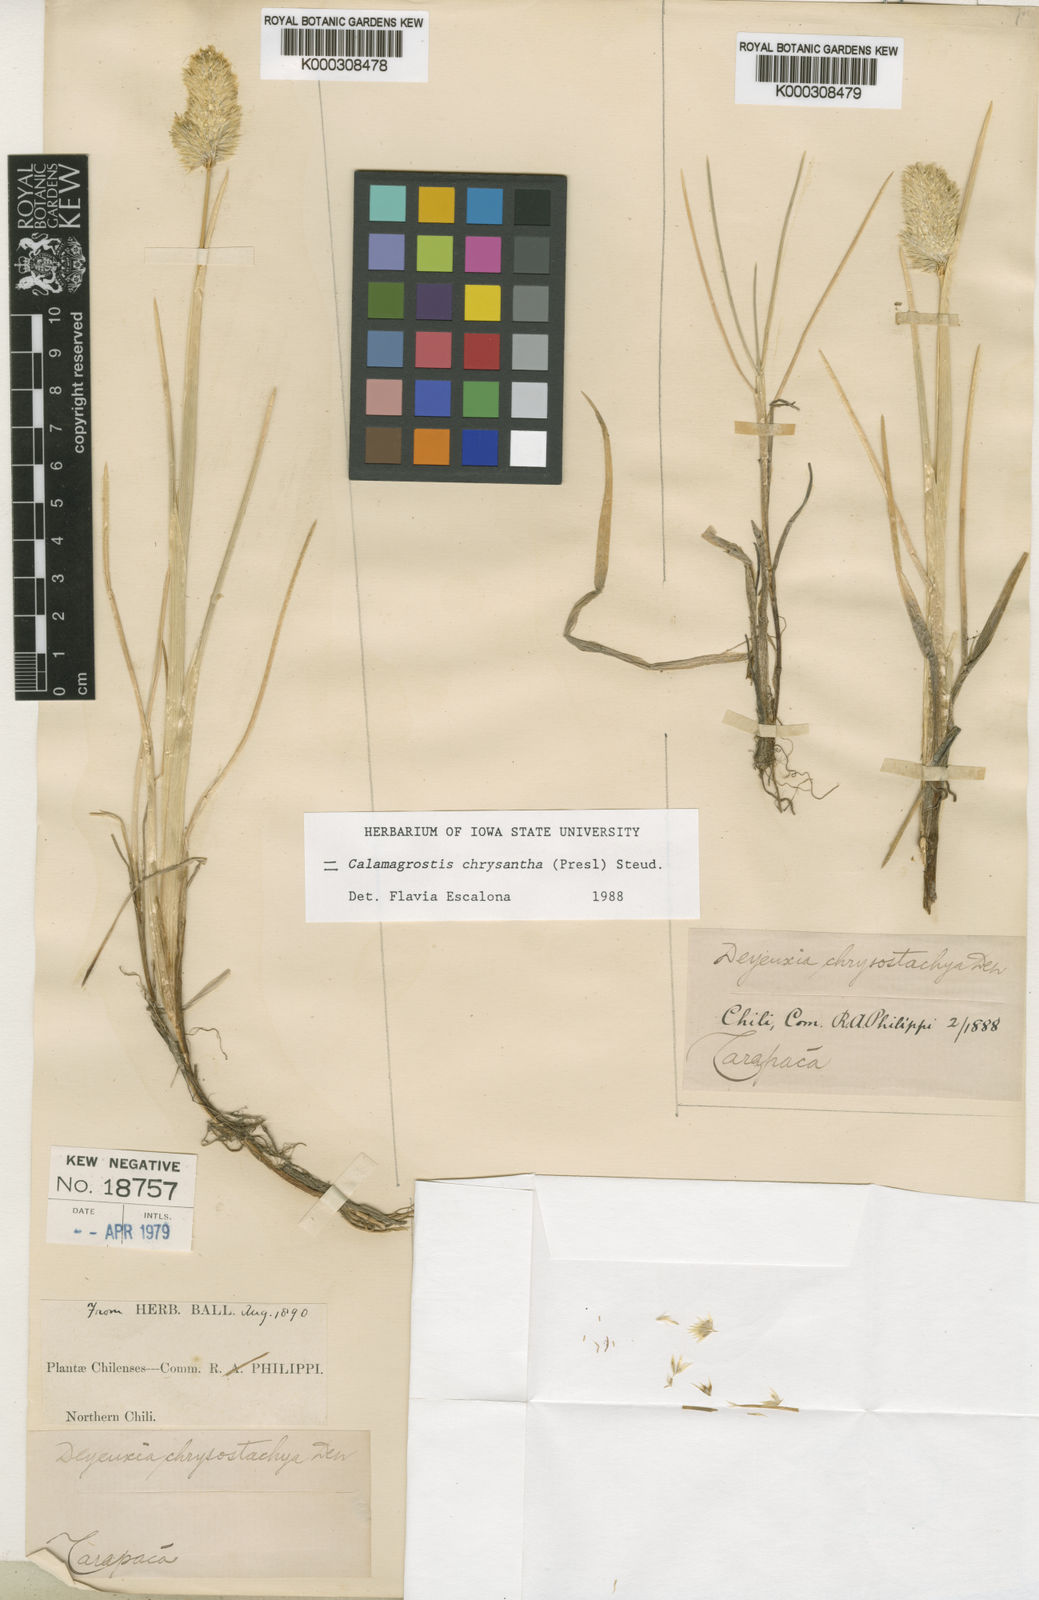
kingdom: Plantae
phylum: Tracheophyta
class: Liliopsida
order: Poales
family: Poaceae
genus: Deschampsia
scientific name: Deschampsia chrysantha
